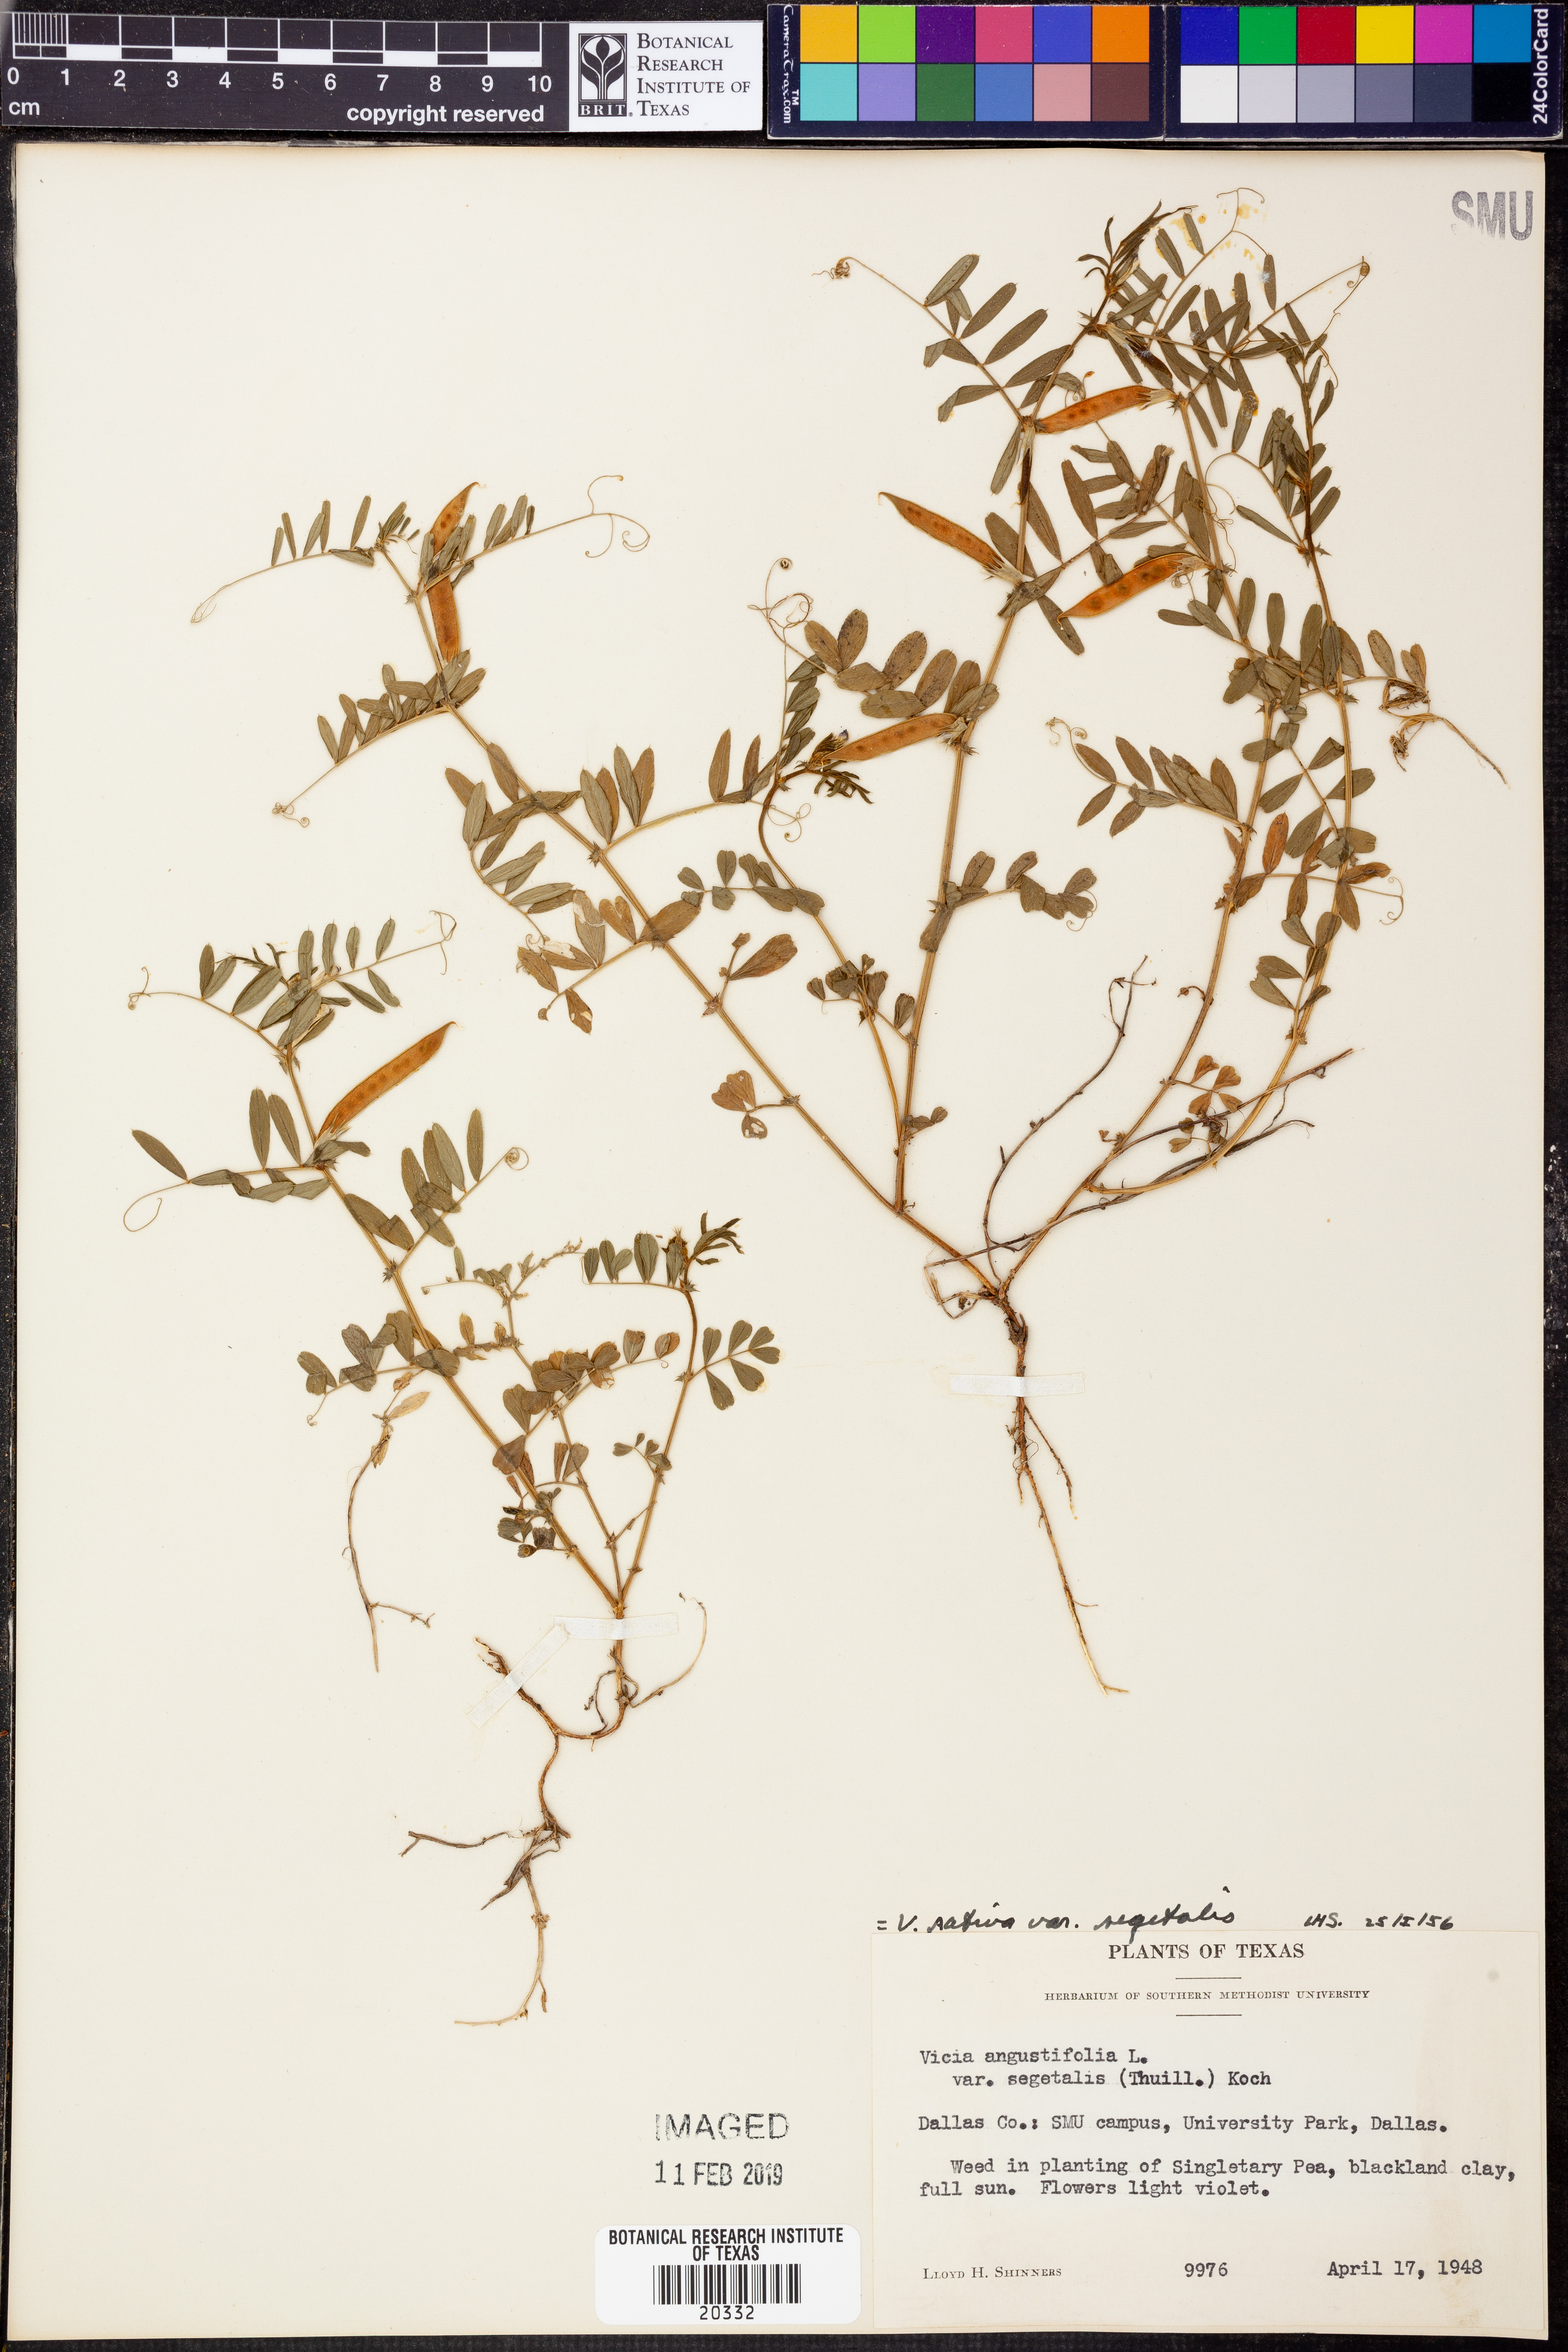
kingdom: Plantae
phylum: Tracheophyta
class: Magnoliopsida
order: Fabales
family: Fabaceae
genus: Vicia
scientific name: Vicia sativa
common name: Garden vetch
